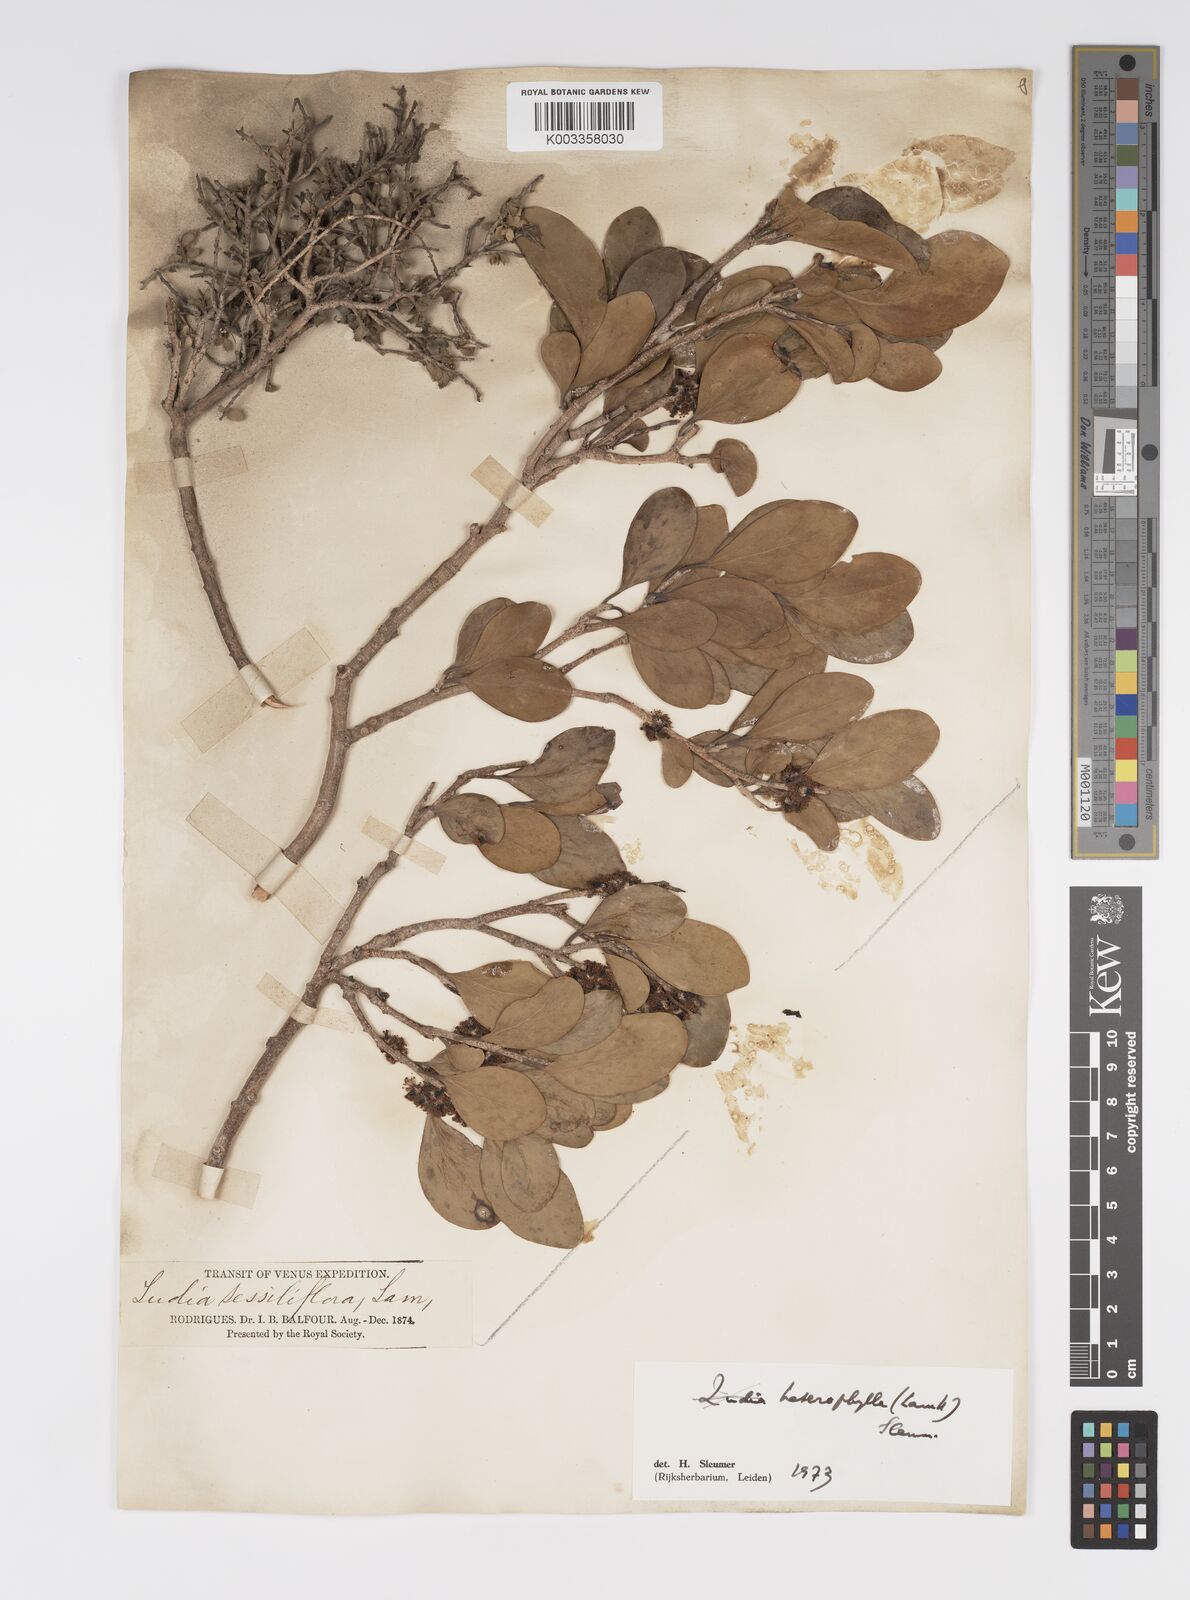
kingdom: Plantae
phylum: Tracheophyta
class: Magnoliopsida
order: Malpighiales
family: Salicaceae
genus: Scolopia
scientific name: Scolopia heterophylla
